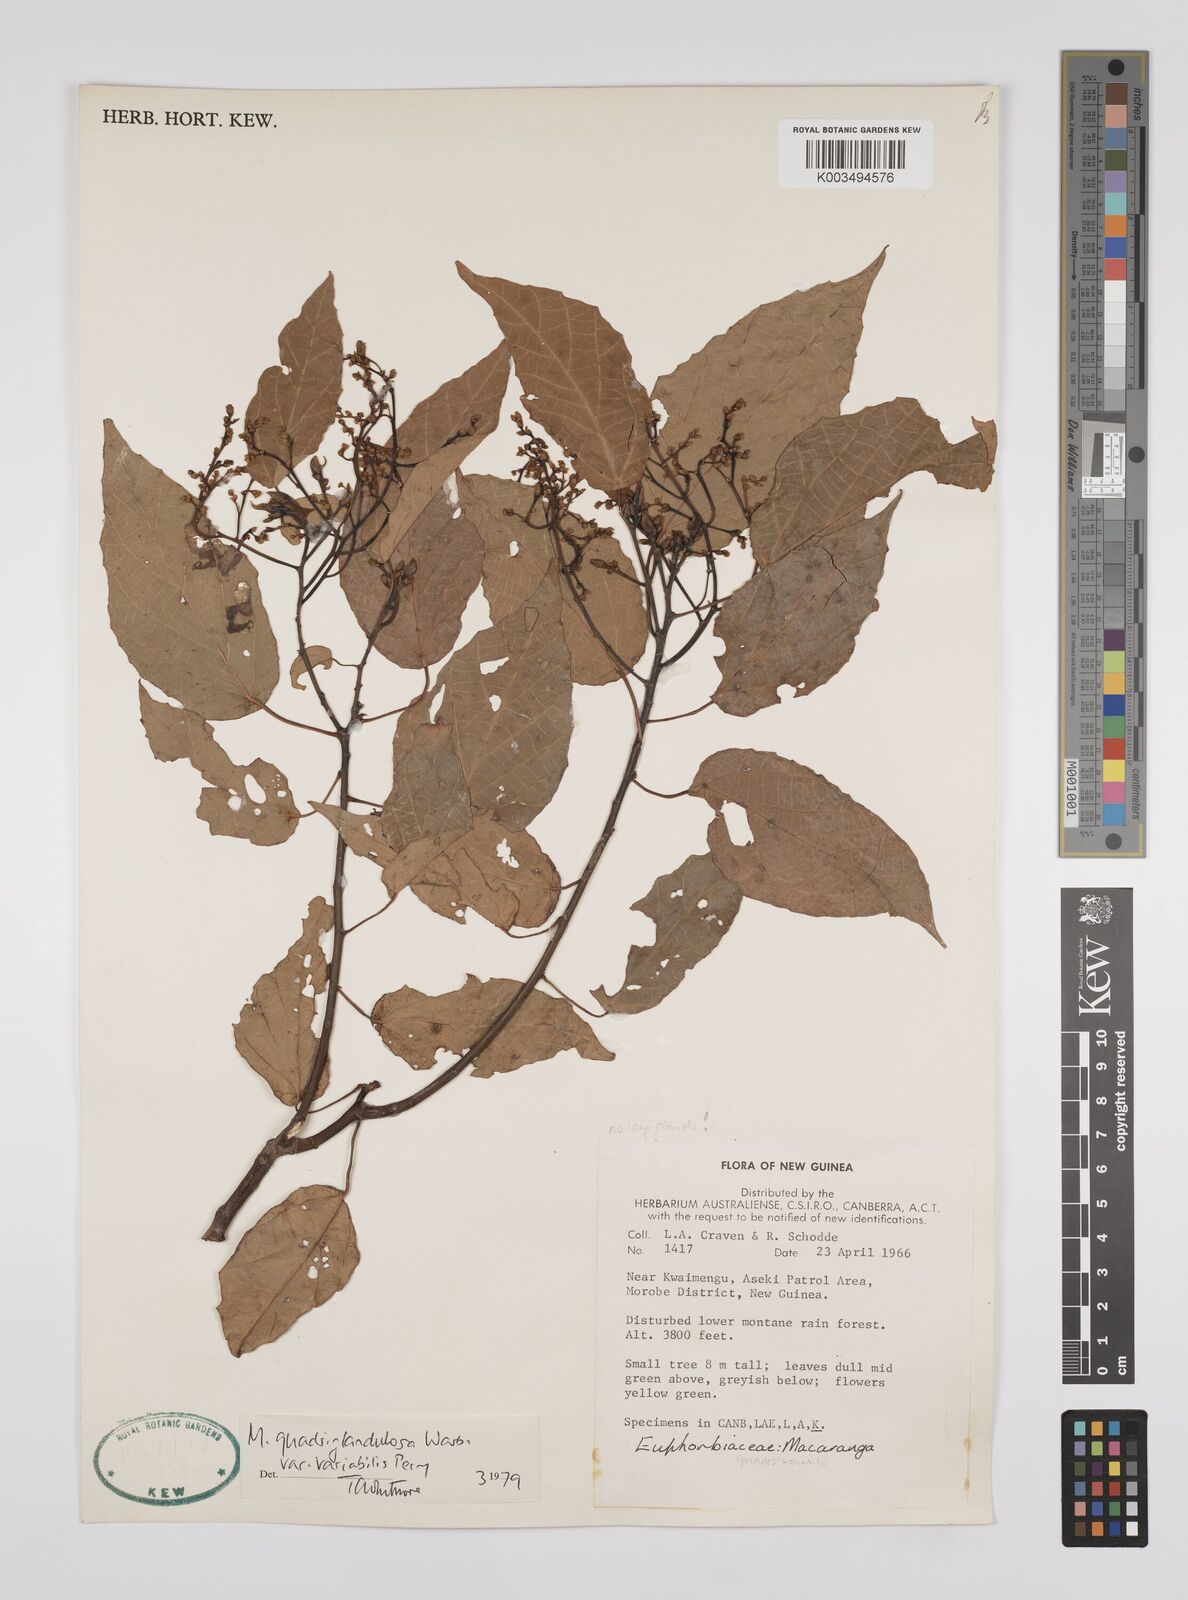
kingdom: Plantae
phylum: Tracheophyta
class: Magnoliopsida
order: Malpighiales
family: Euphorbiaceae
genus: Macaranga
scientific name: Macaranga quadriglandulosa
